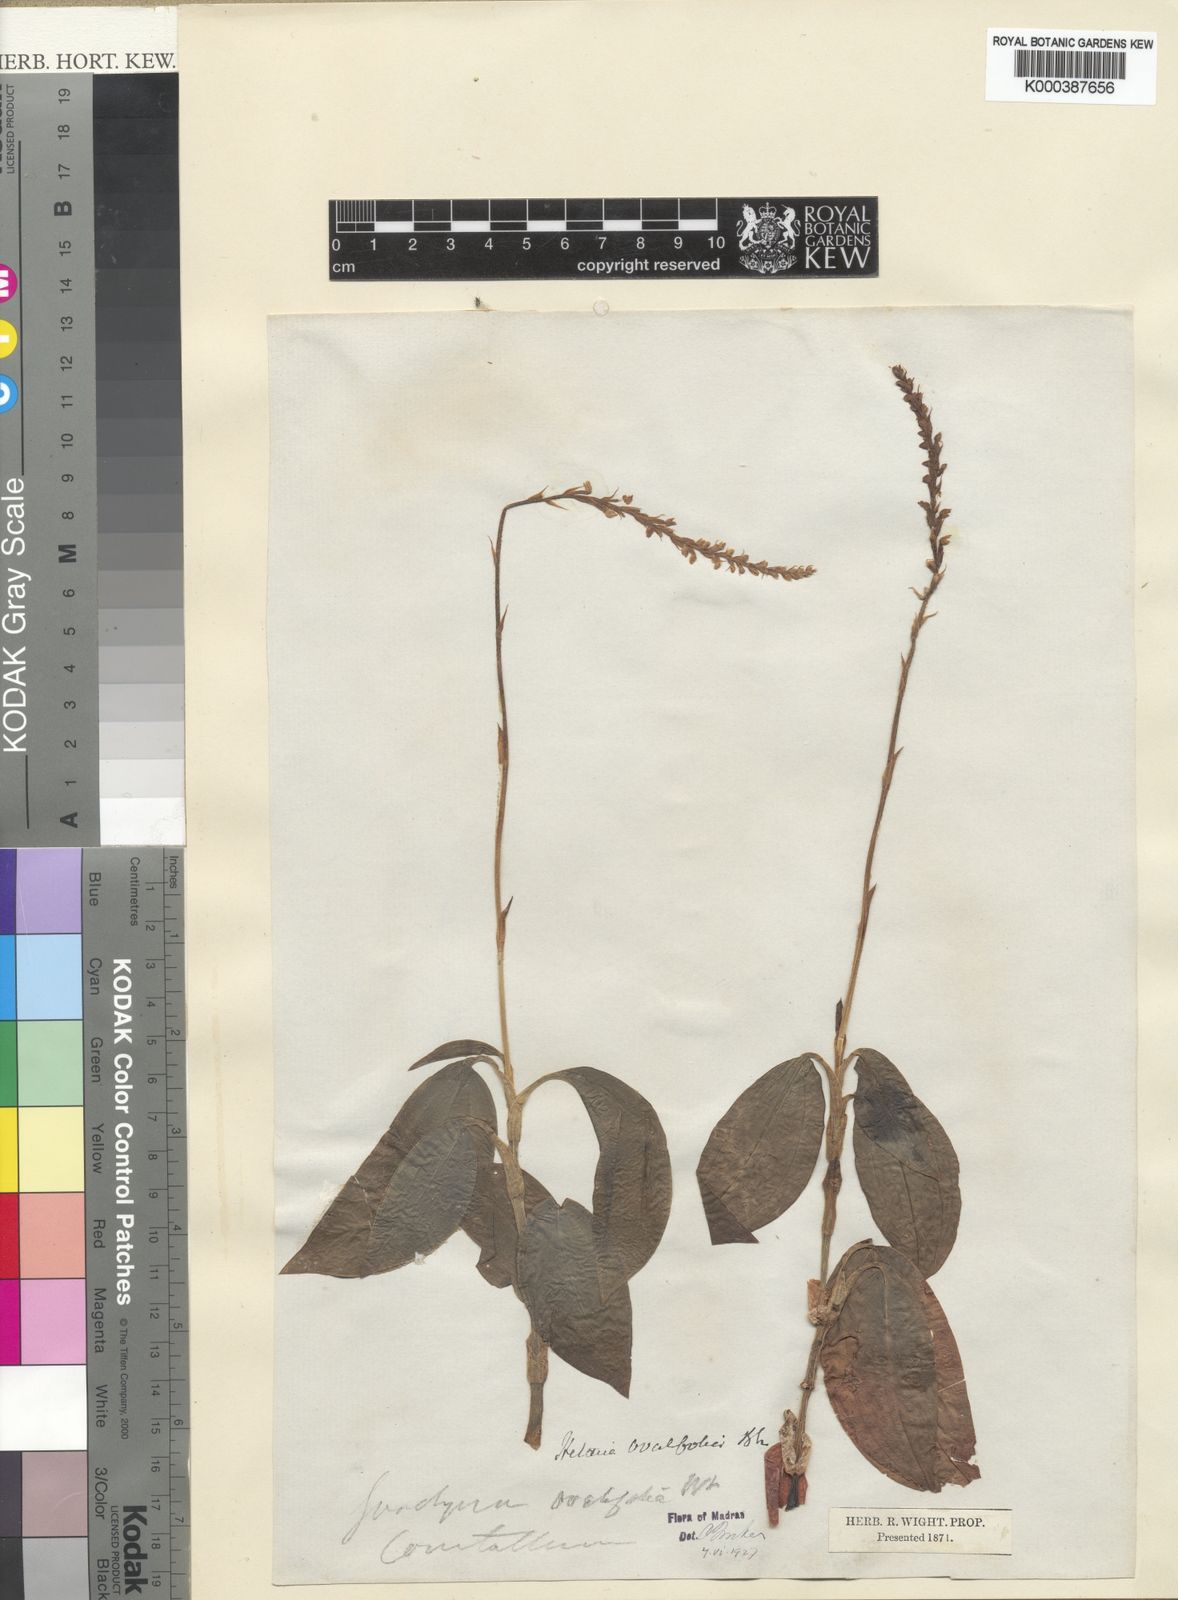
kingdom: Plantae
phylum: Tracheophyta
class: Liliopsida
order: Asparagales
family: Orchidaceae
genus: Hetaeria
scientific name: Hetaeria oblongifolia
